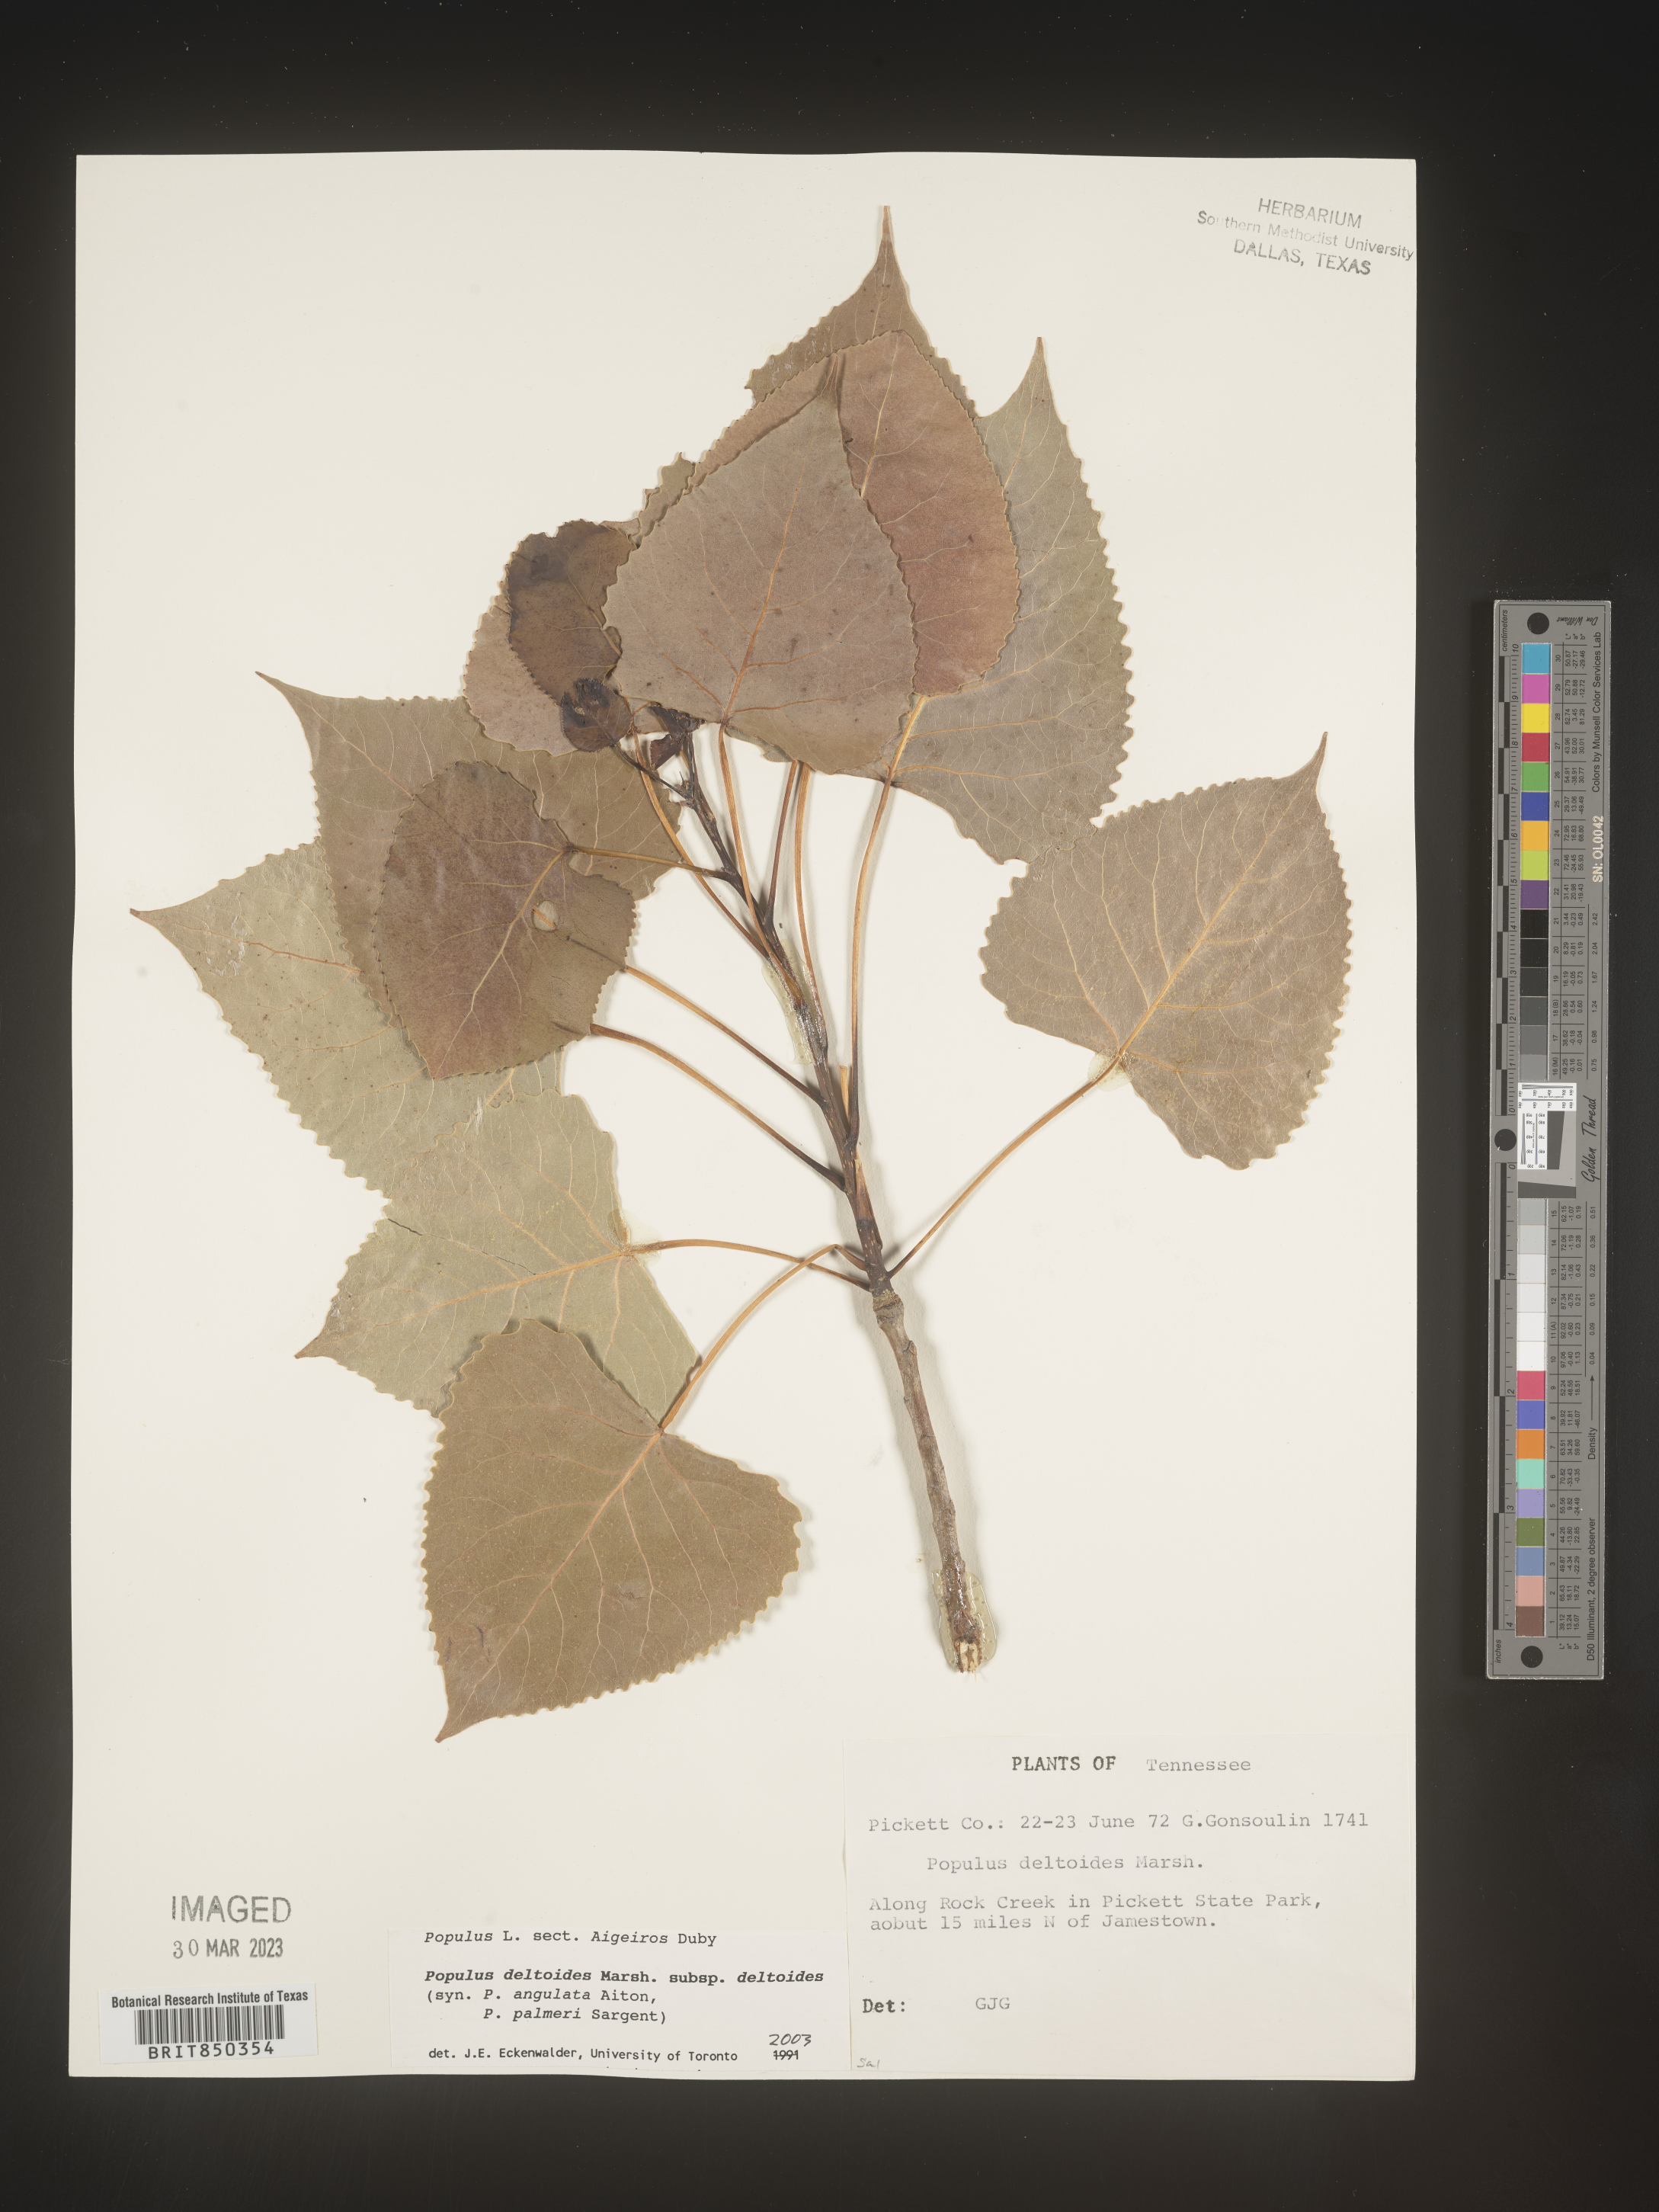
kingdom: Plantae
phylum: Tracheophyta
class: Magnoliopsida
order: Malpighiales
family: Salicaceae
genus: Populus
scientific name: Populus deltoides
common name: Eastern cottonwood
